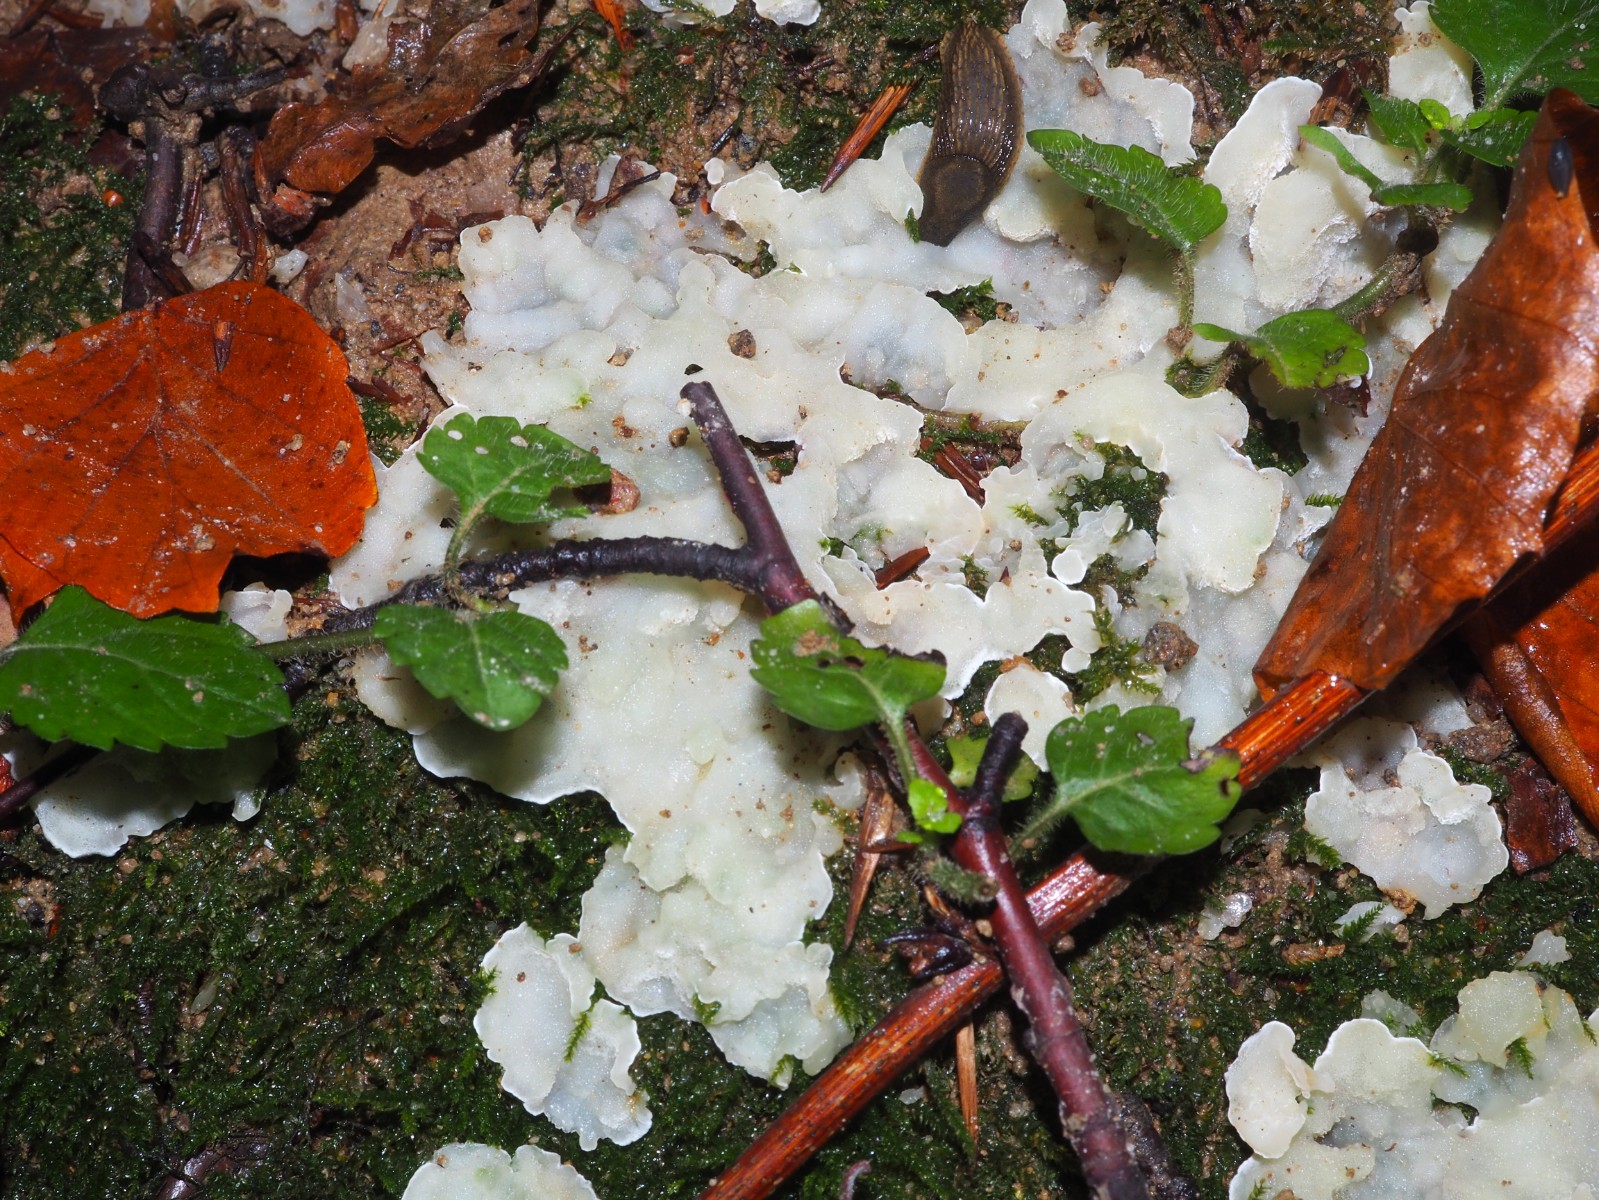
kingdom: Fungi
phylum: Basidiomycota
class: Agaricomycetes
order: Polyporales
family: Meruliaceae
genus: Physisporinus
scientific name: Physisporinus vitreus
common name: mastesvamp
